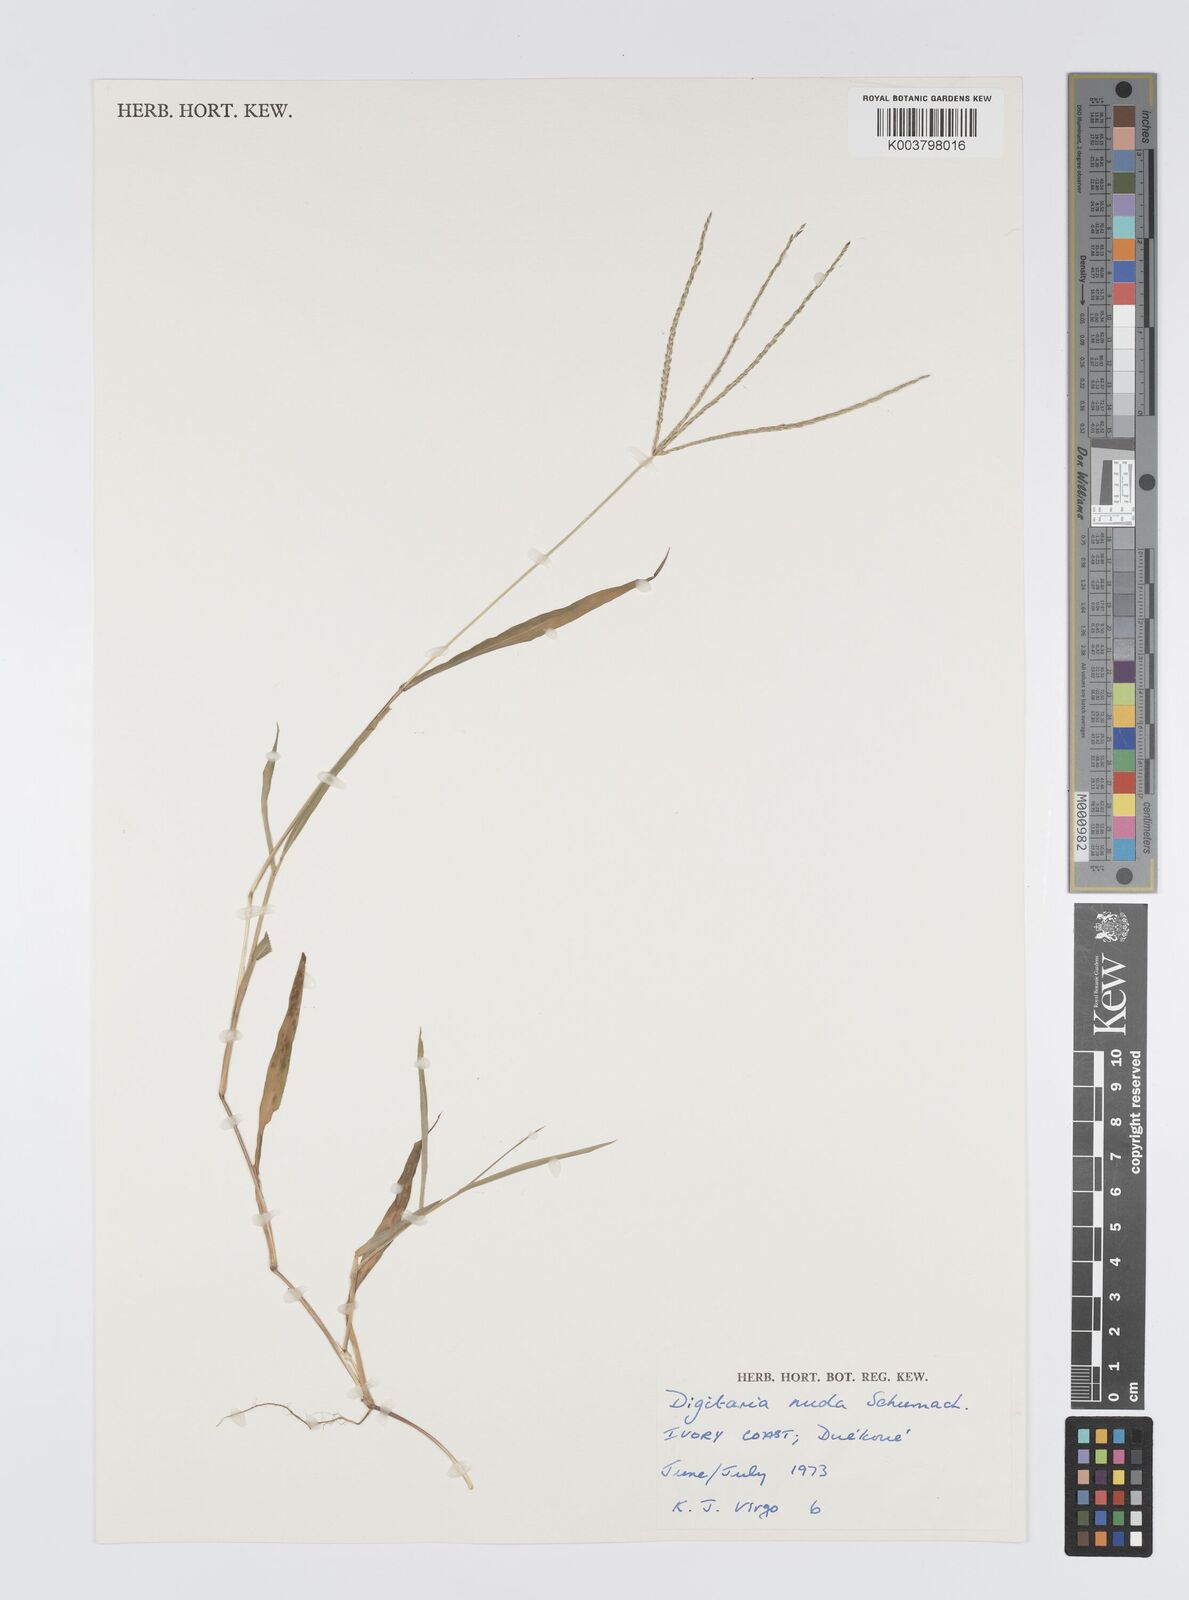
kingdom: Plantae
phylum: Tracheophyta
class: Liliopsida
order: Poales
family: Poaceae
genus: Digitaria
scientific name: Digitaria nuda
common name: Naked crabgrass
